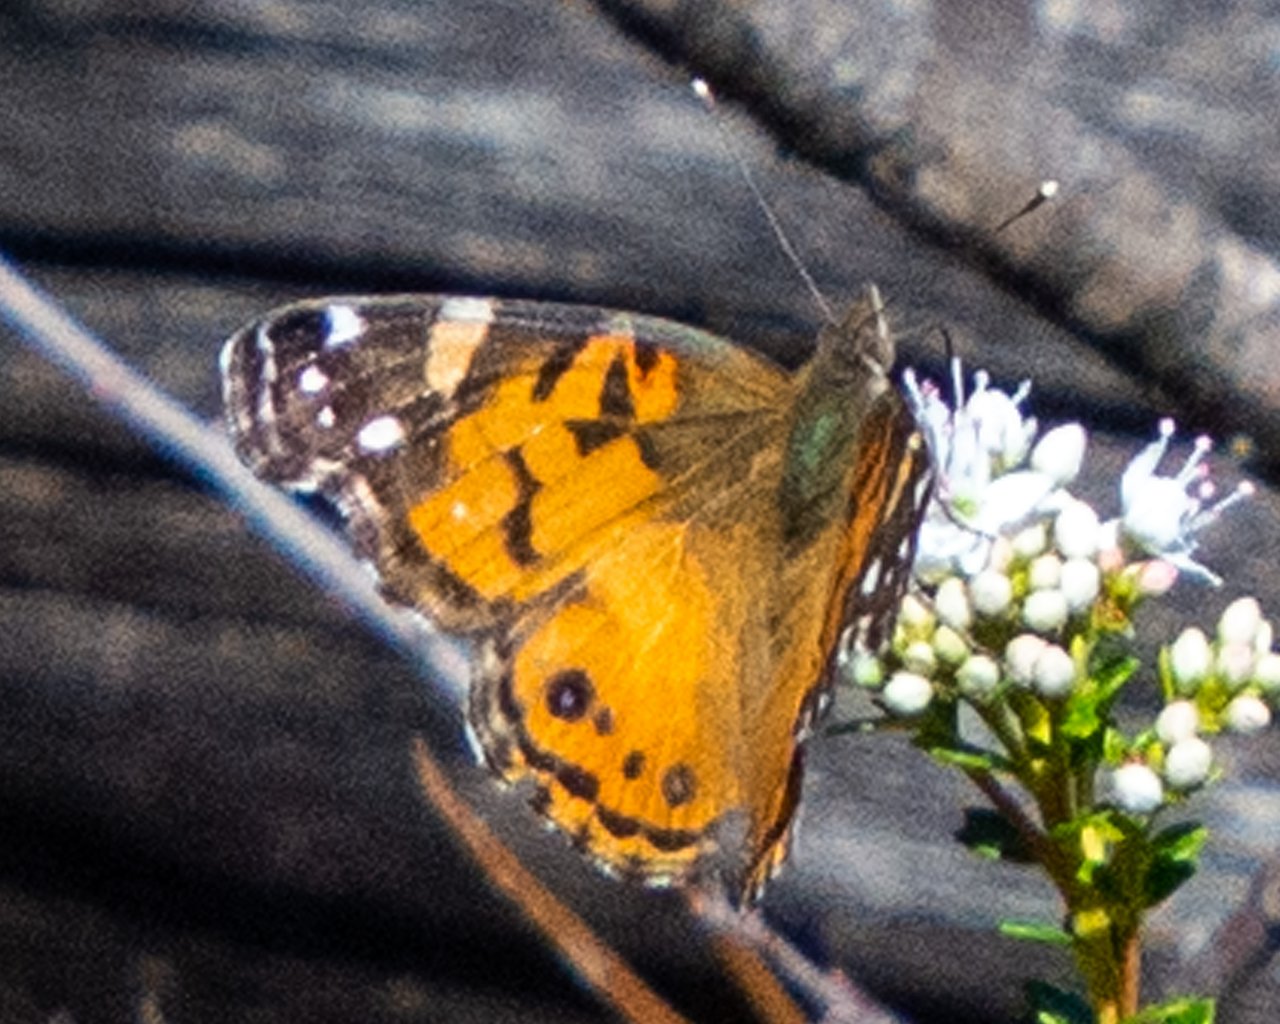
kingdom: Animalia
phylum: Arthropoda
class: Insecta
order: Lepidoptera
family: Nymphalidae
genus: Vanessa
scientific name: Vanessa virginiensis
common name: American Lady
